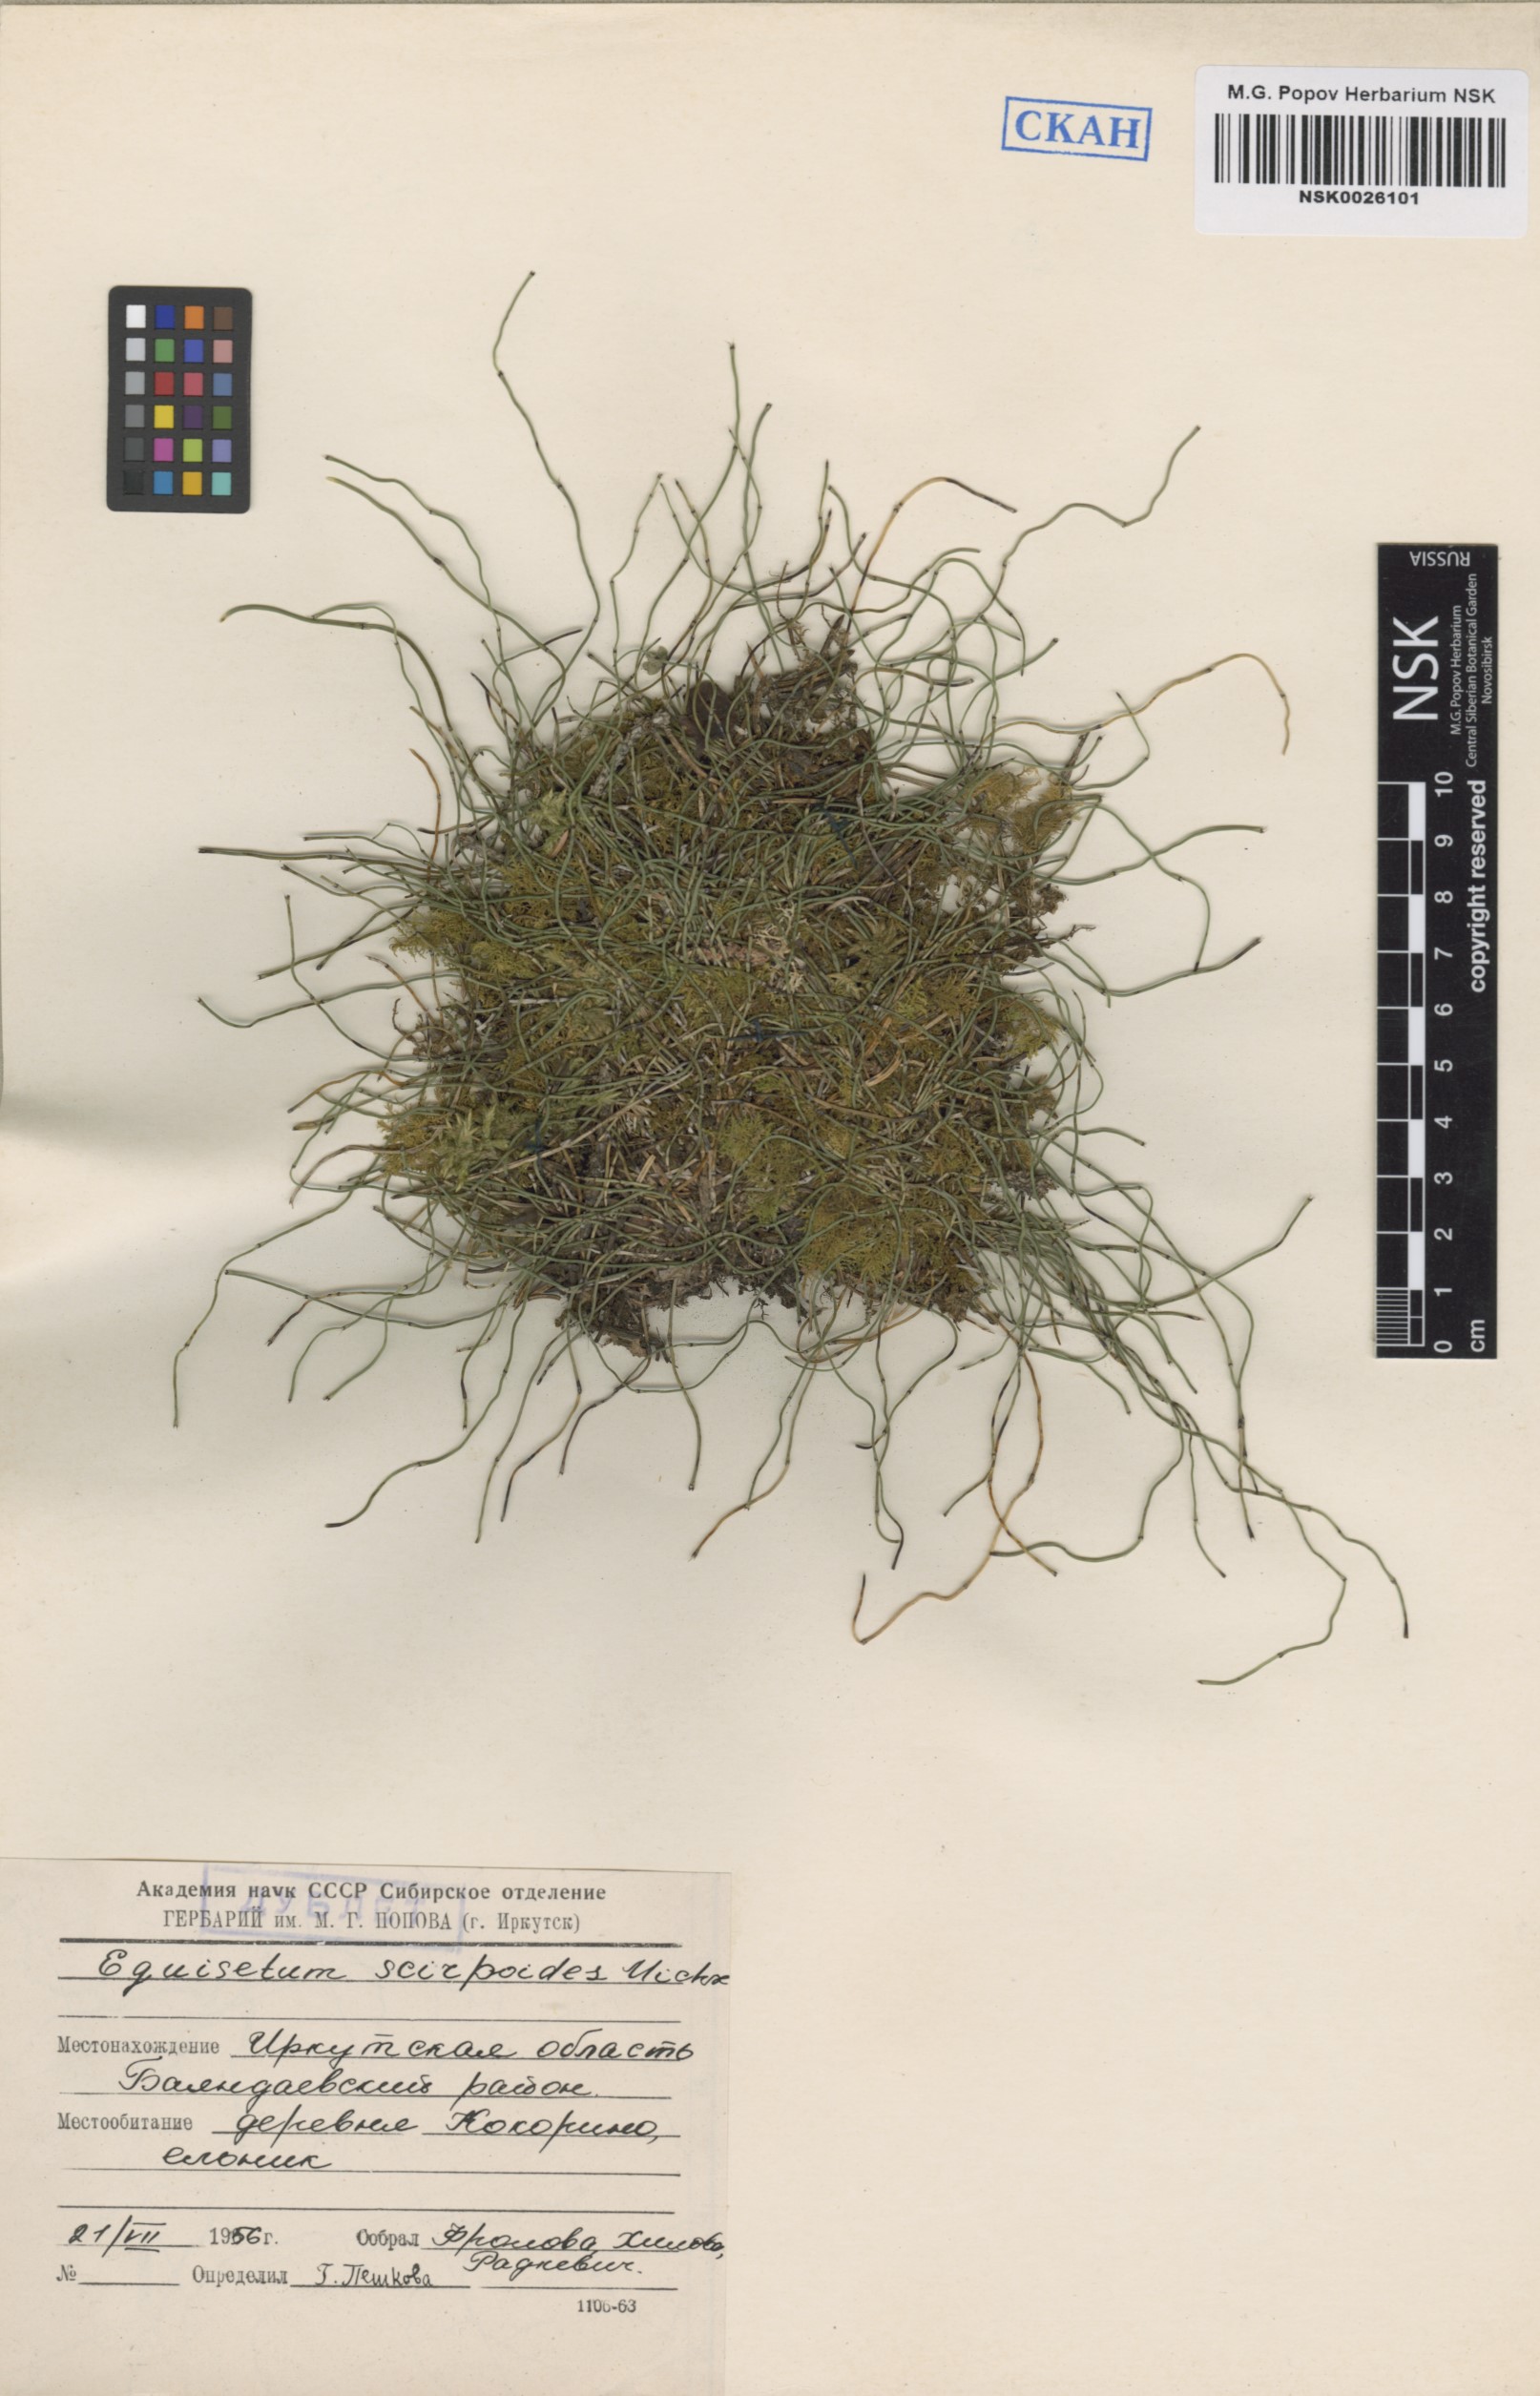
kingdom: Plantae
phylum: Tracheophyta
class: Polypodiopsida
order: Equisetales
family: Equisetaceae
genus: Equisetum
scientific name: Equisetum scirpoides
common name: Delicate horsetail
